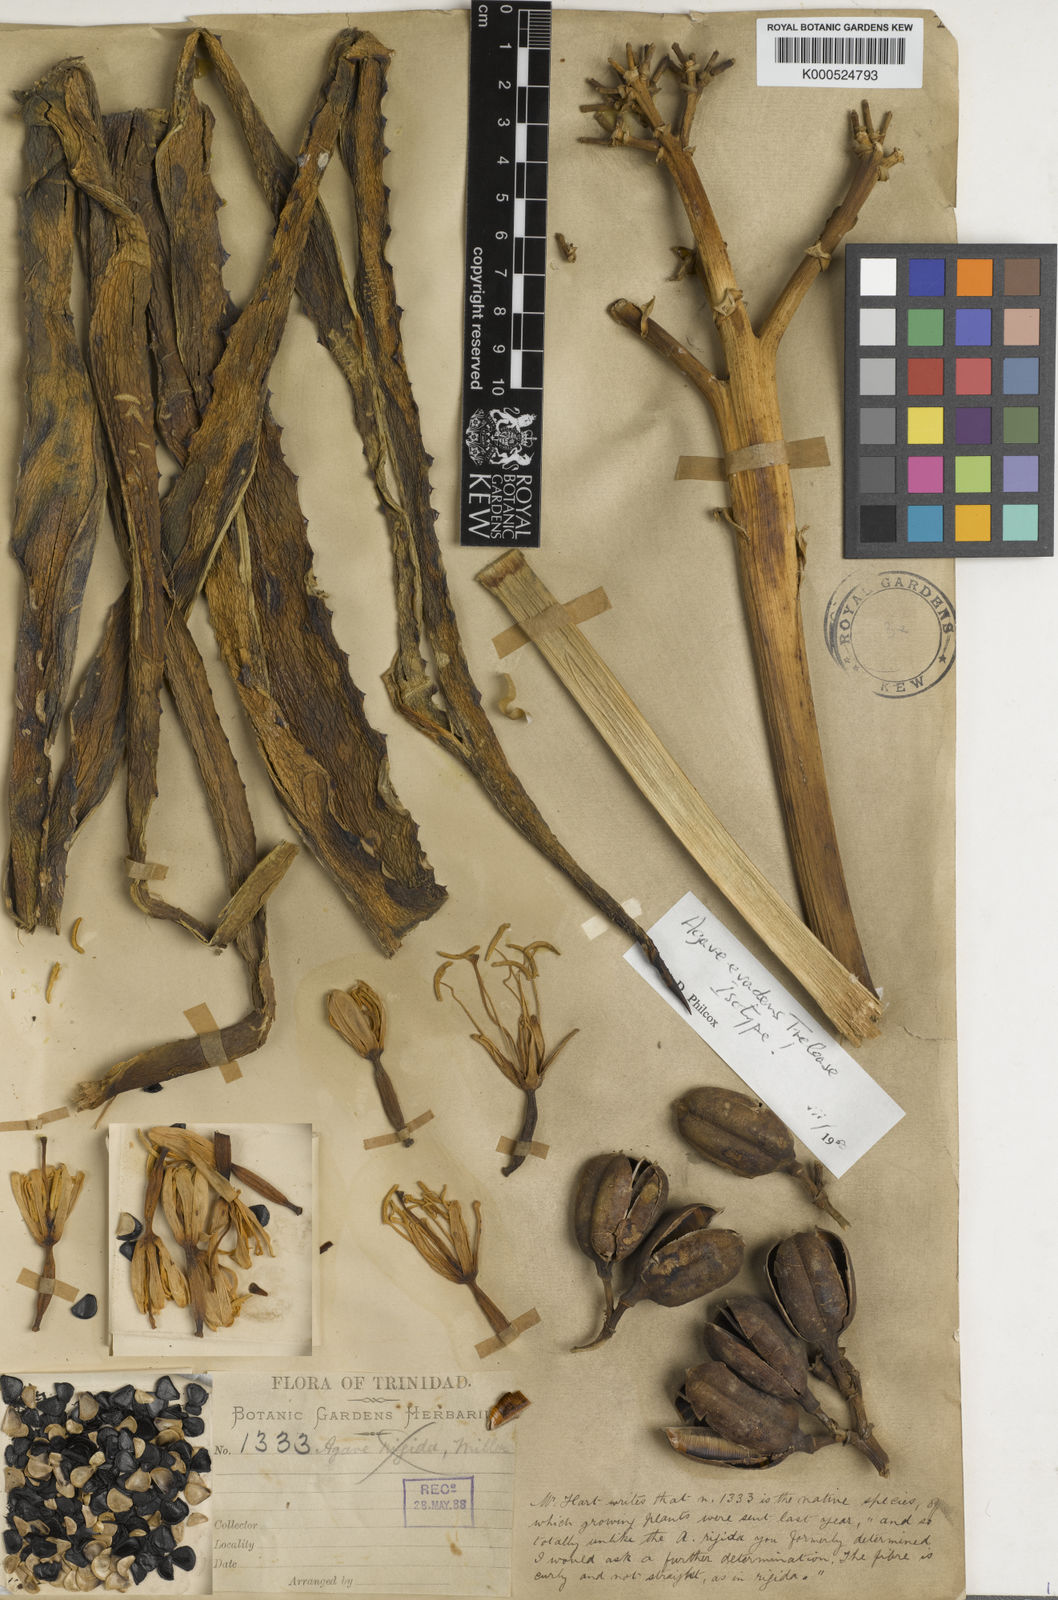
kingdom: Plantae
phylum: Tracheophyta
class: Liliopsida
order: Asparagales
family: Asparagaceae
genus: Agave
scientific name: Agave evadens
